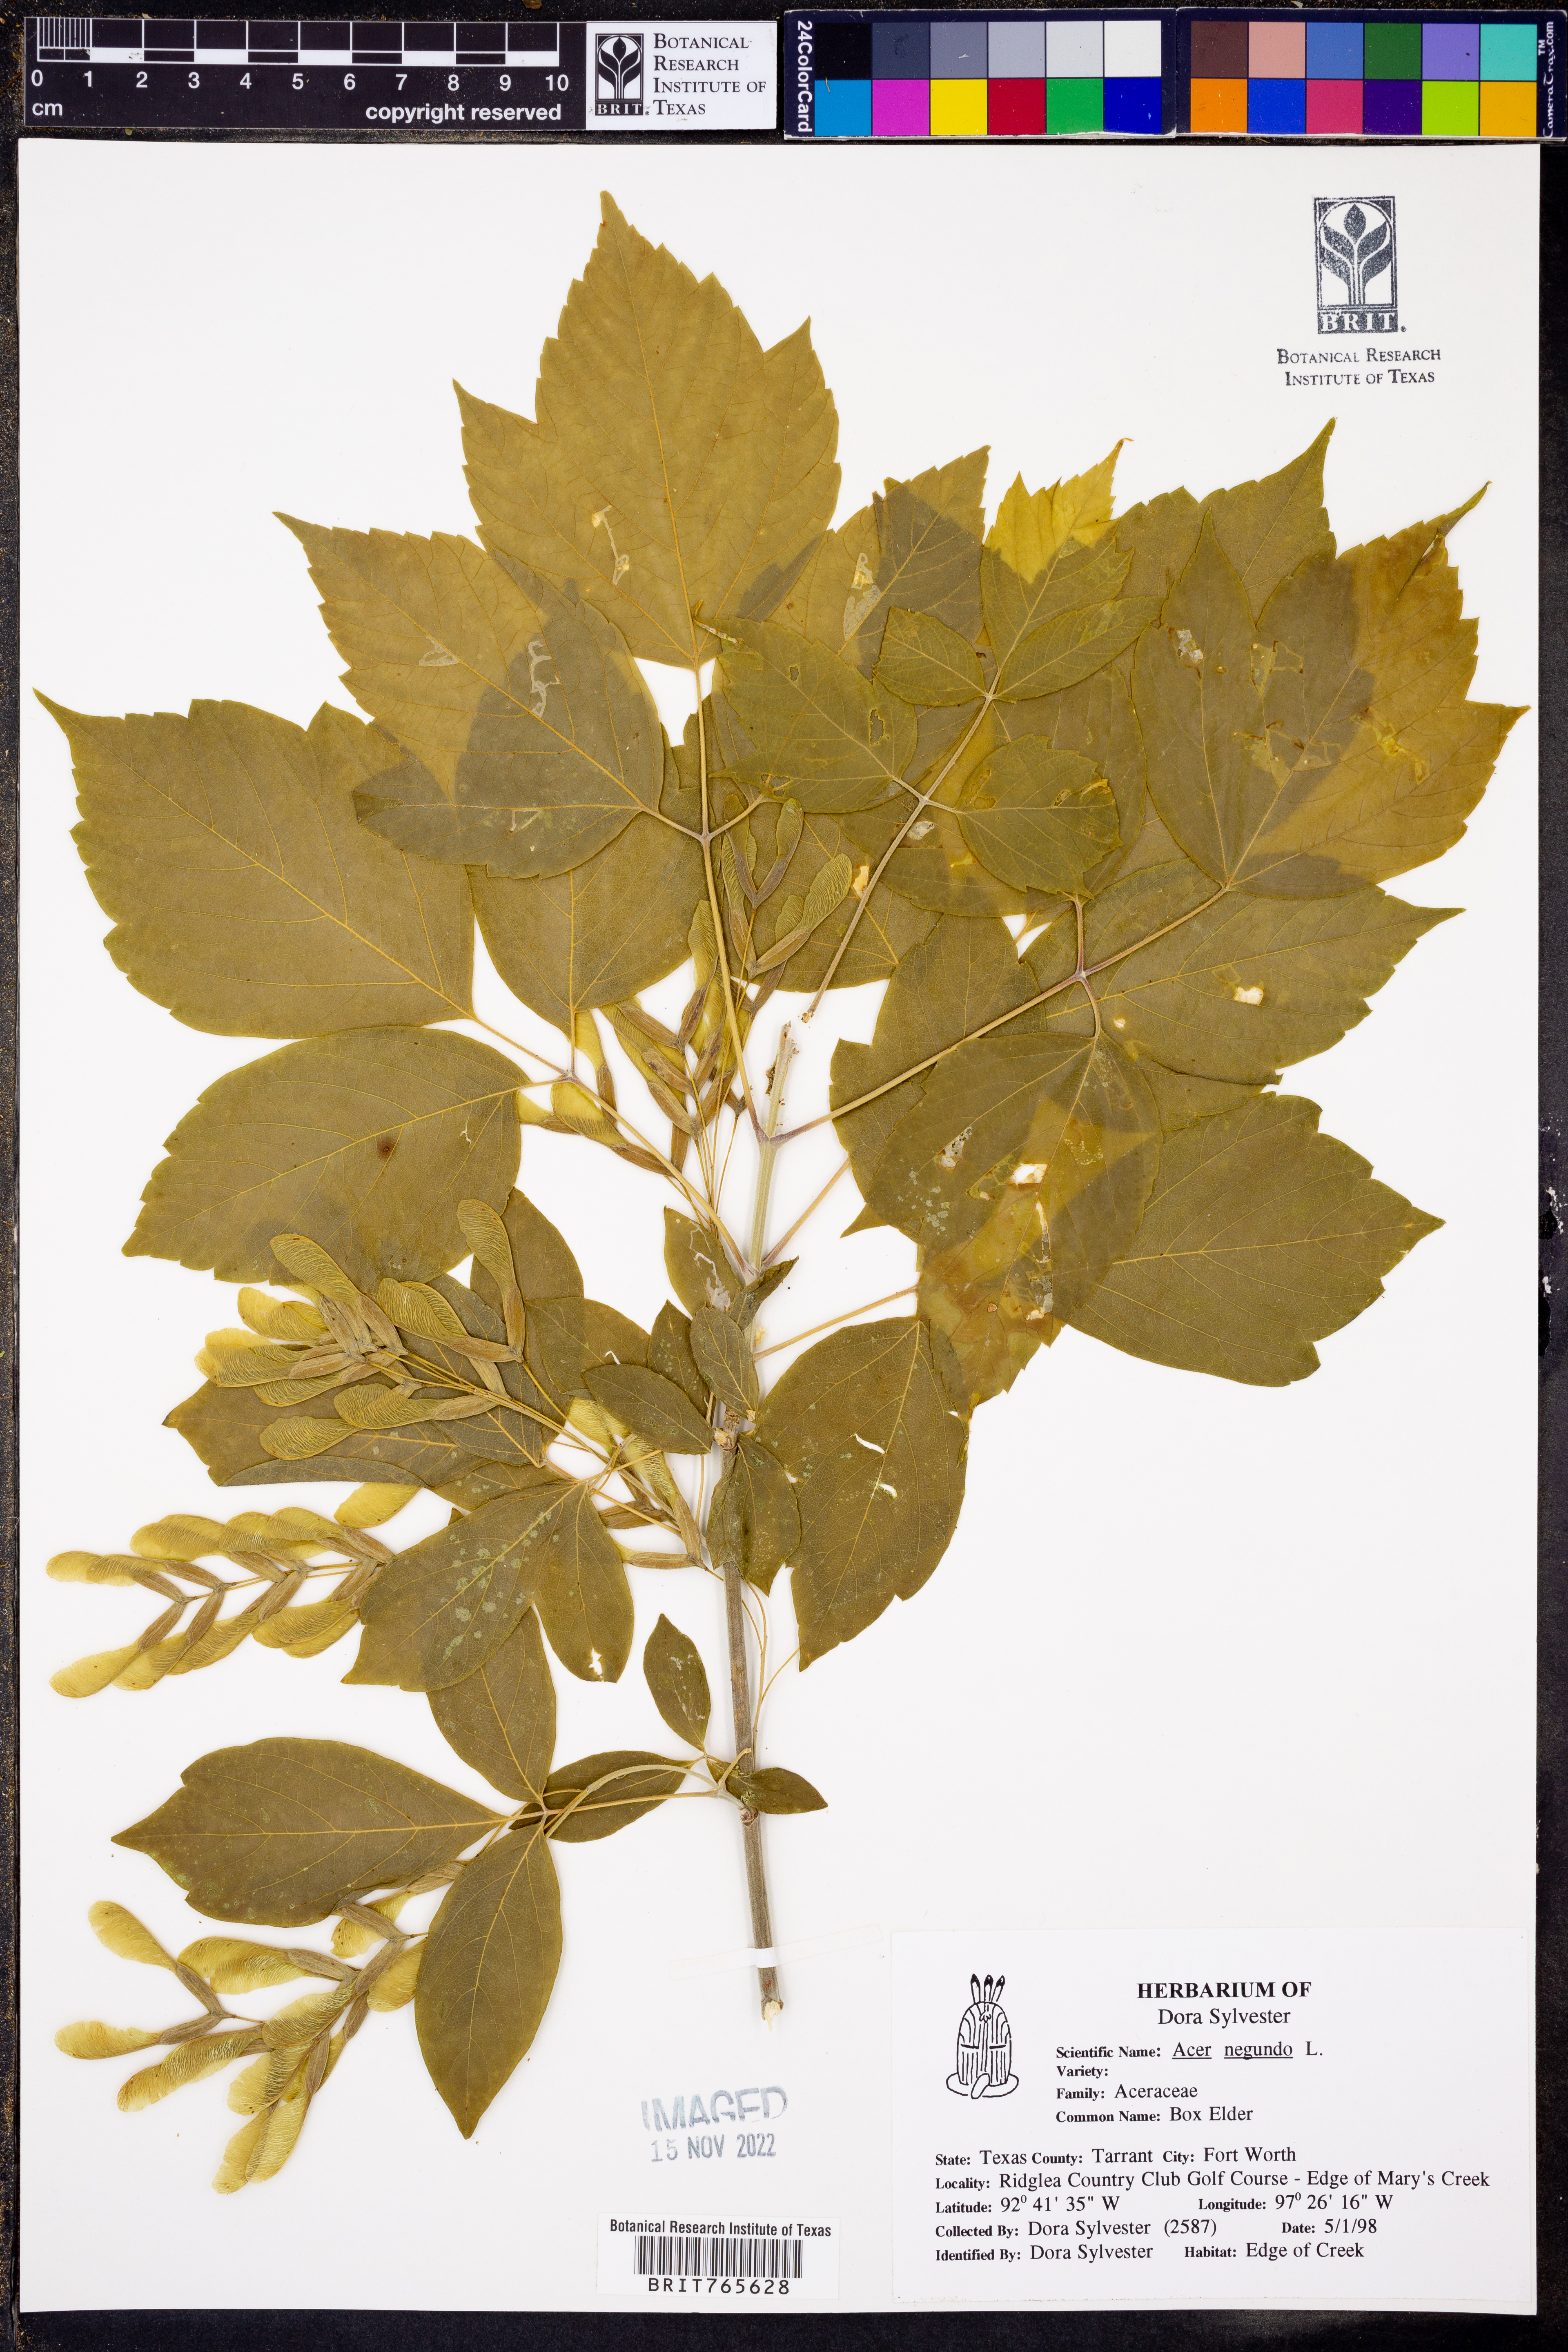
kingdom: Plantae
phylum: Tracheophyta
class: Magnoliopsida
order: Sapindales
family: Sapindaceae
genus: Acer
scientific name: Acer negundo
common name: Ashleaf maple
